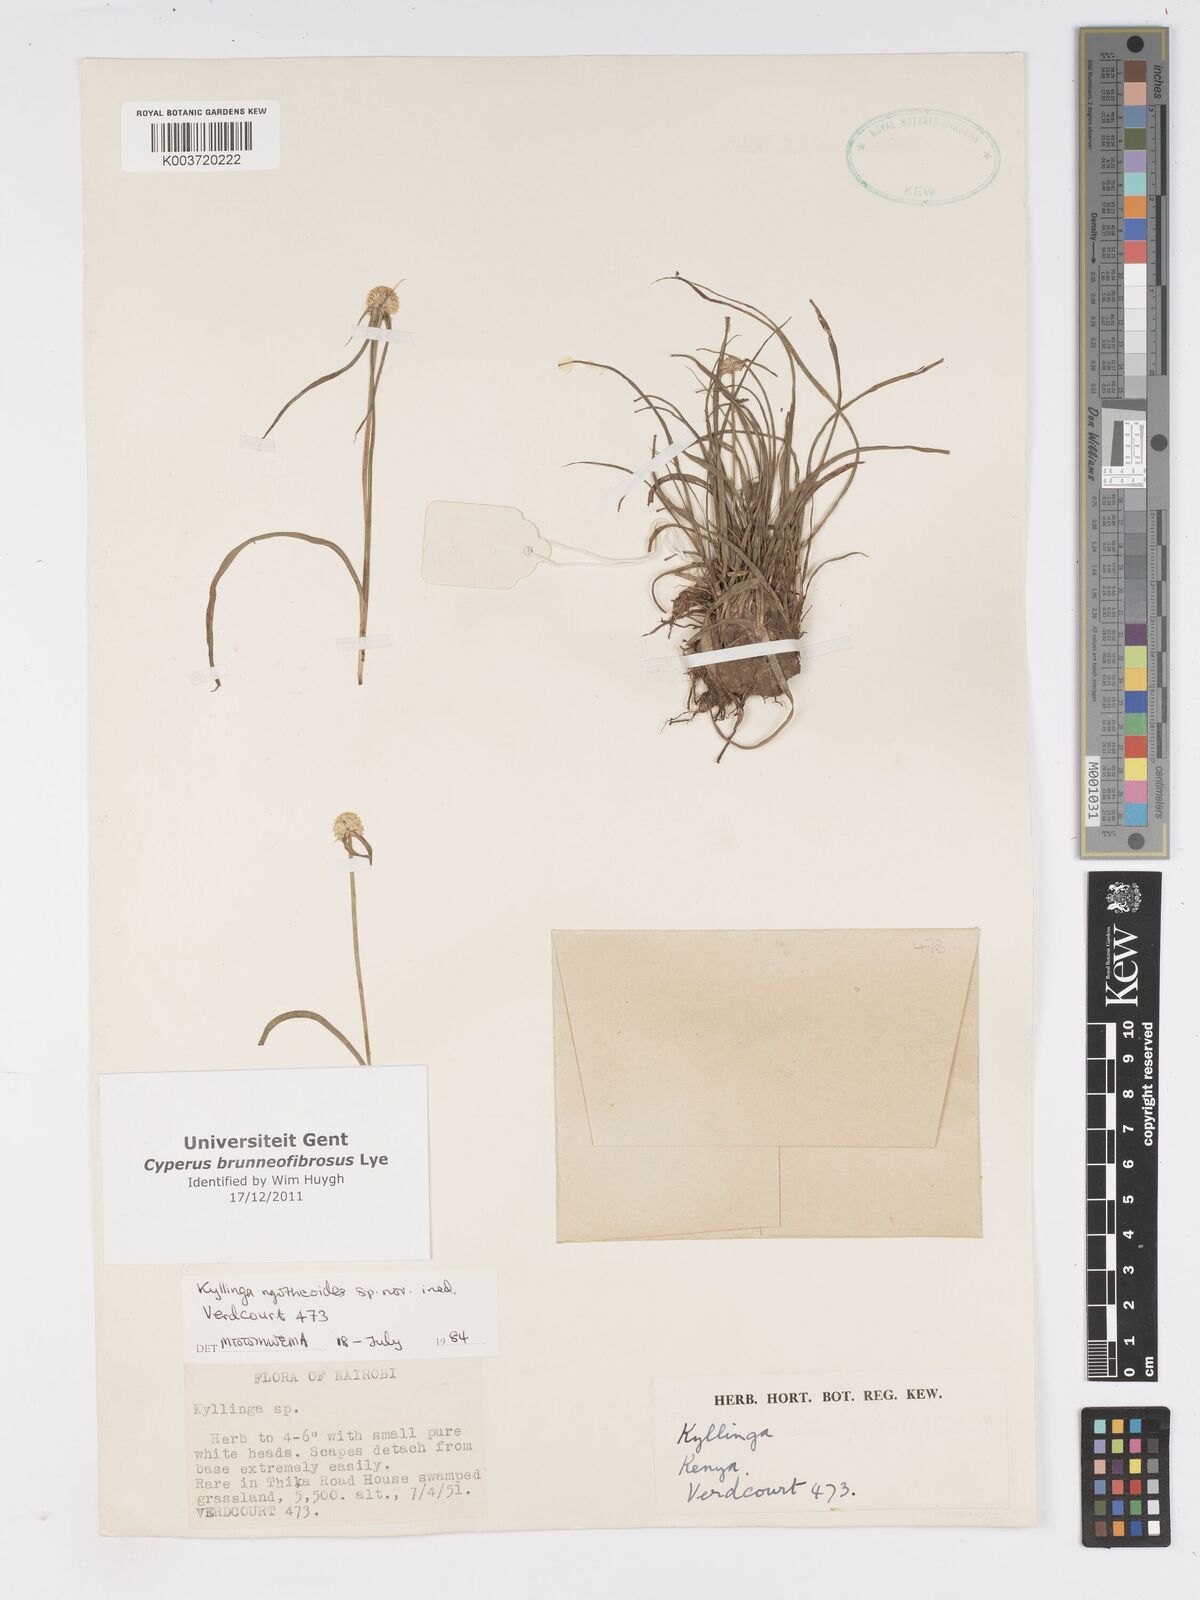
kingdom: Plantae
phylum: Tracheophyta
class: Liliopsida
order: Poales
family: Cyperaceae
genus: Cyperus
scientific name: Cyperus brunneofibrosus
